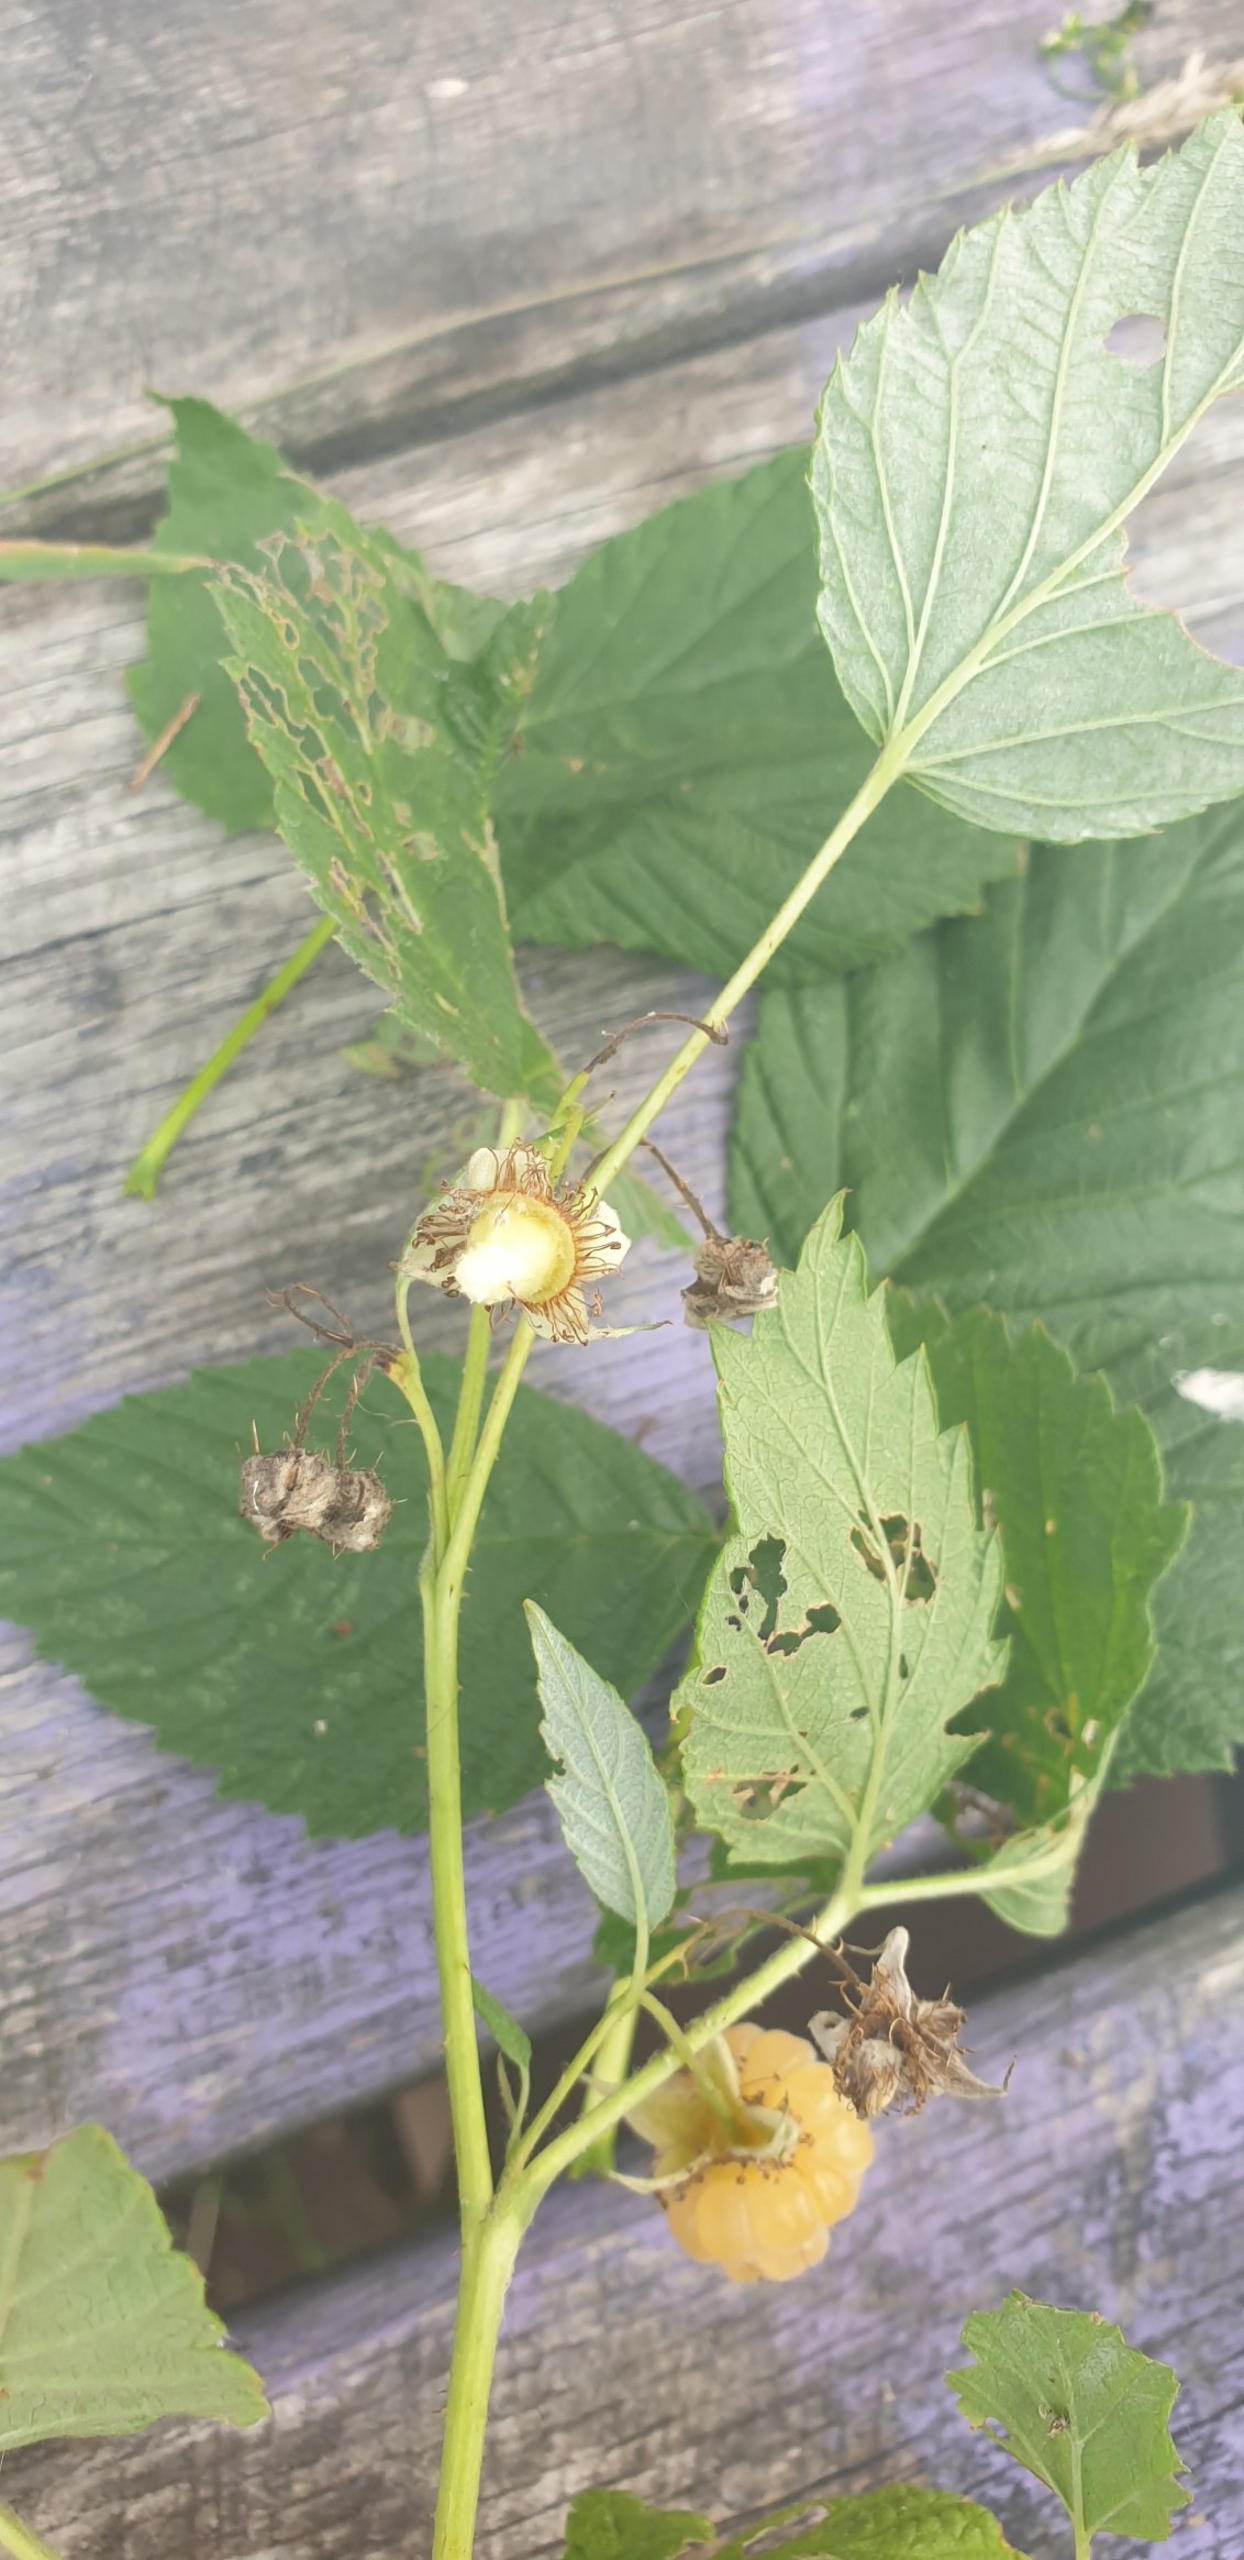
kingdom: Plantae
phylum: Tracheophyta
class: Magnoliopsida
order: Rosales
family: Rosaceae
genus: Rubus
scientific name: Rubus idaeus
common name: Hindbær
